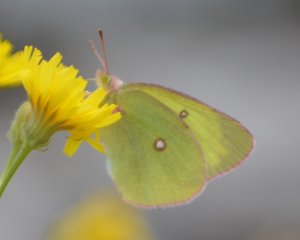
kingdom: Animalia
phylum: Arthropoda
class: Insecta
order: Lepidoptera
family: Pieridae
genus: Colias
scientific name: Colias interior
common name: Pink-edged Sulphur
